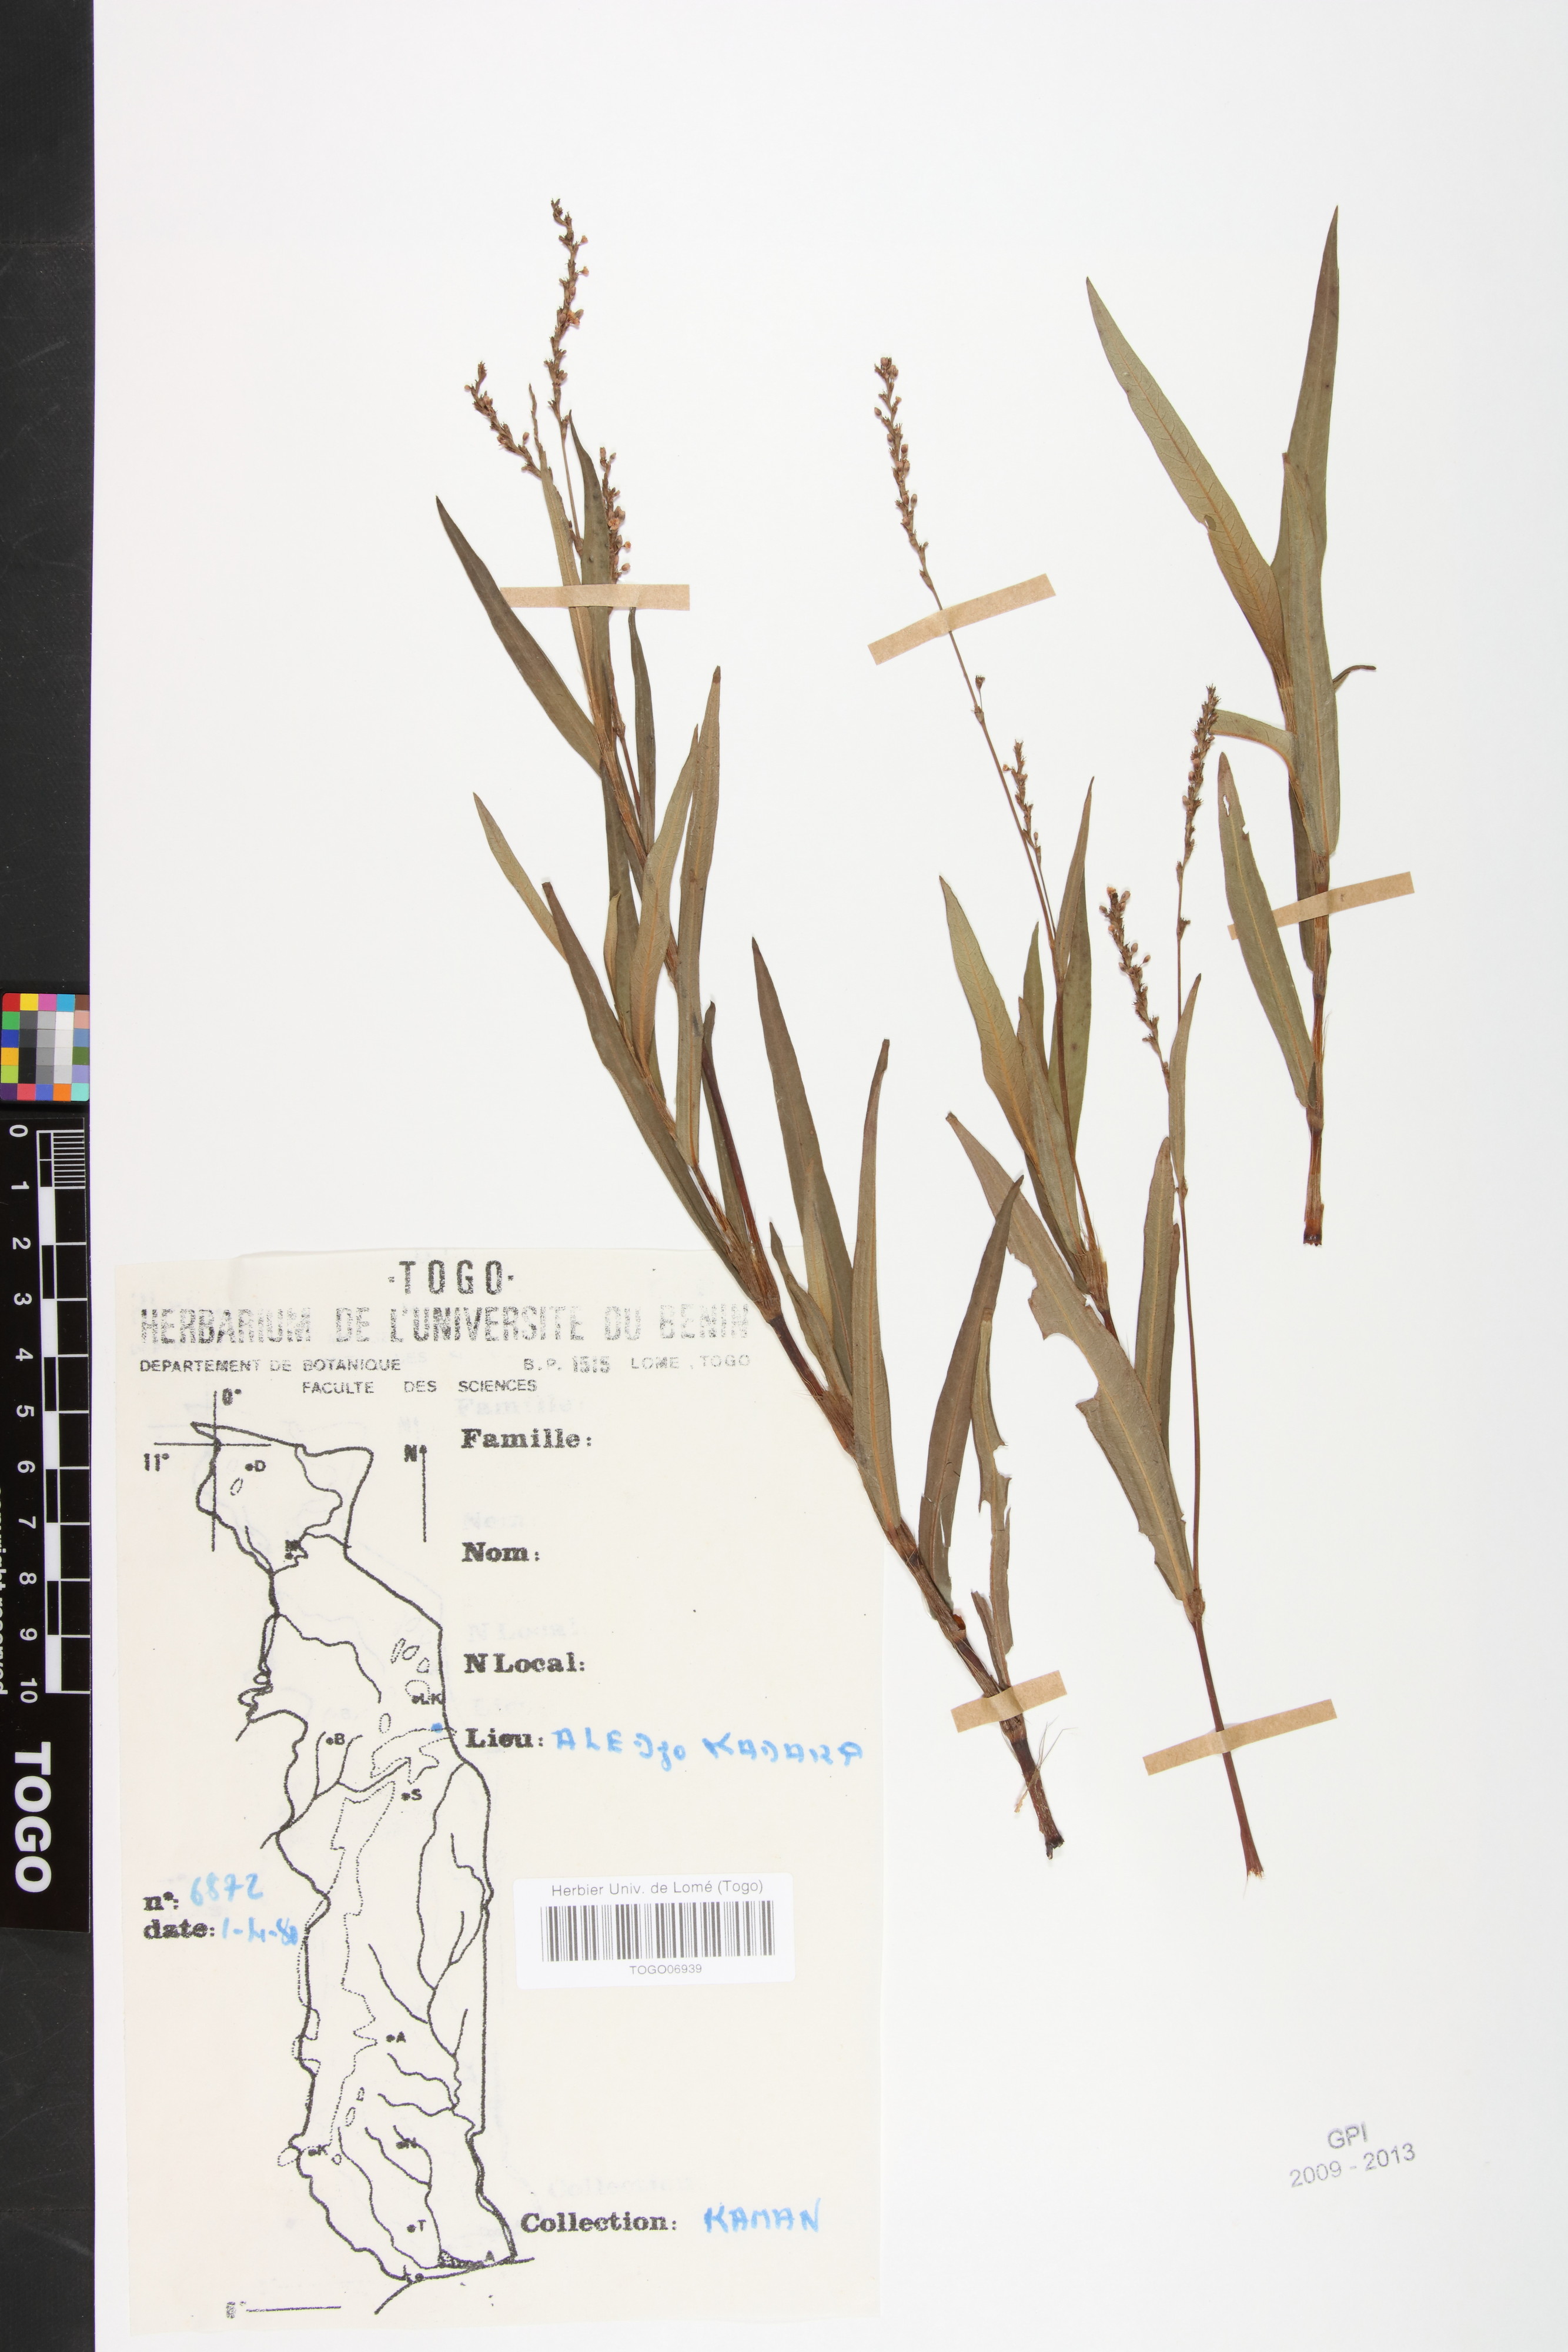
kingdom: Plantae
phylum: Tracheophyta
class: Magnoliopsida
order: Caryophyllales
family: Polygonaceae
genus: Persicaria
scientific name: Persicaria salicifolia
